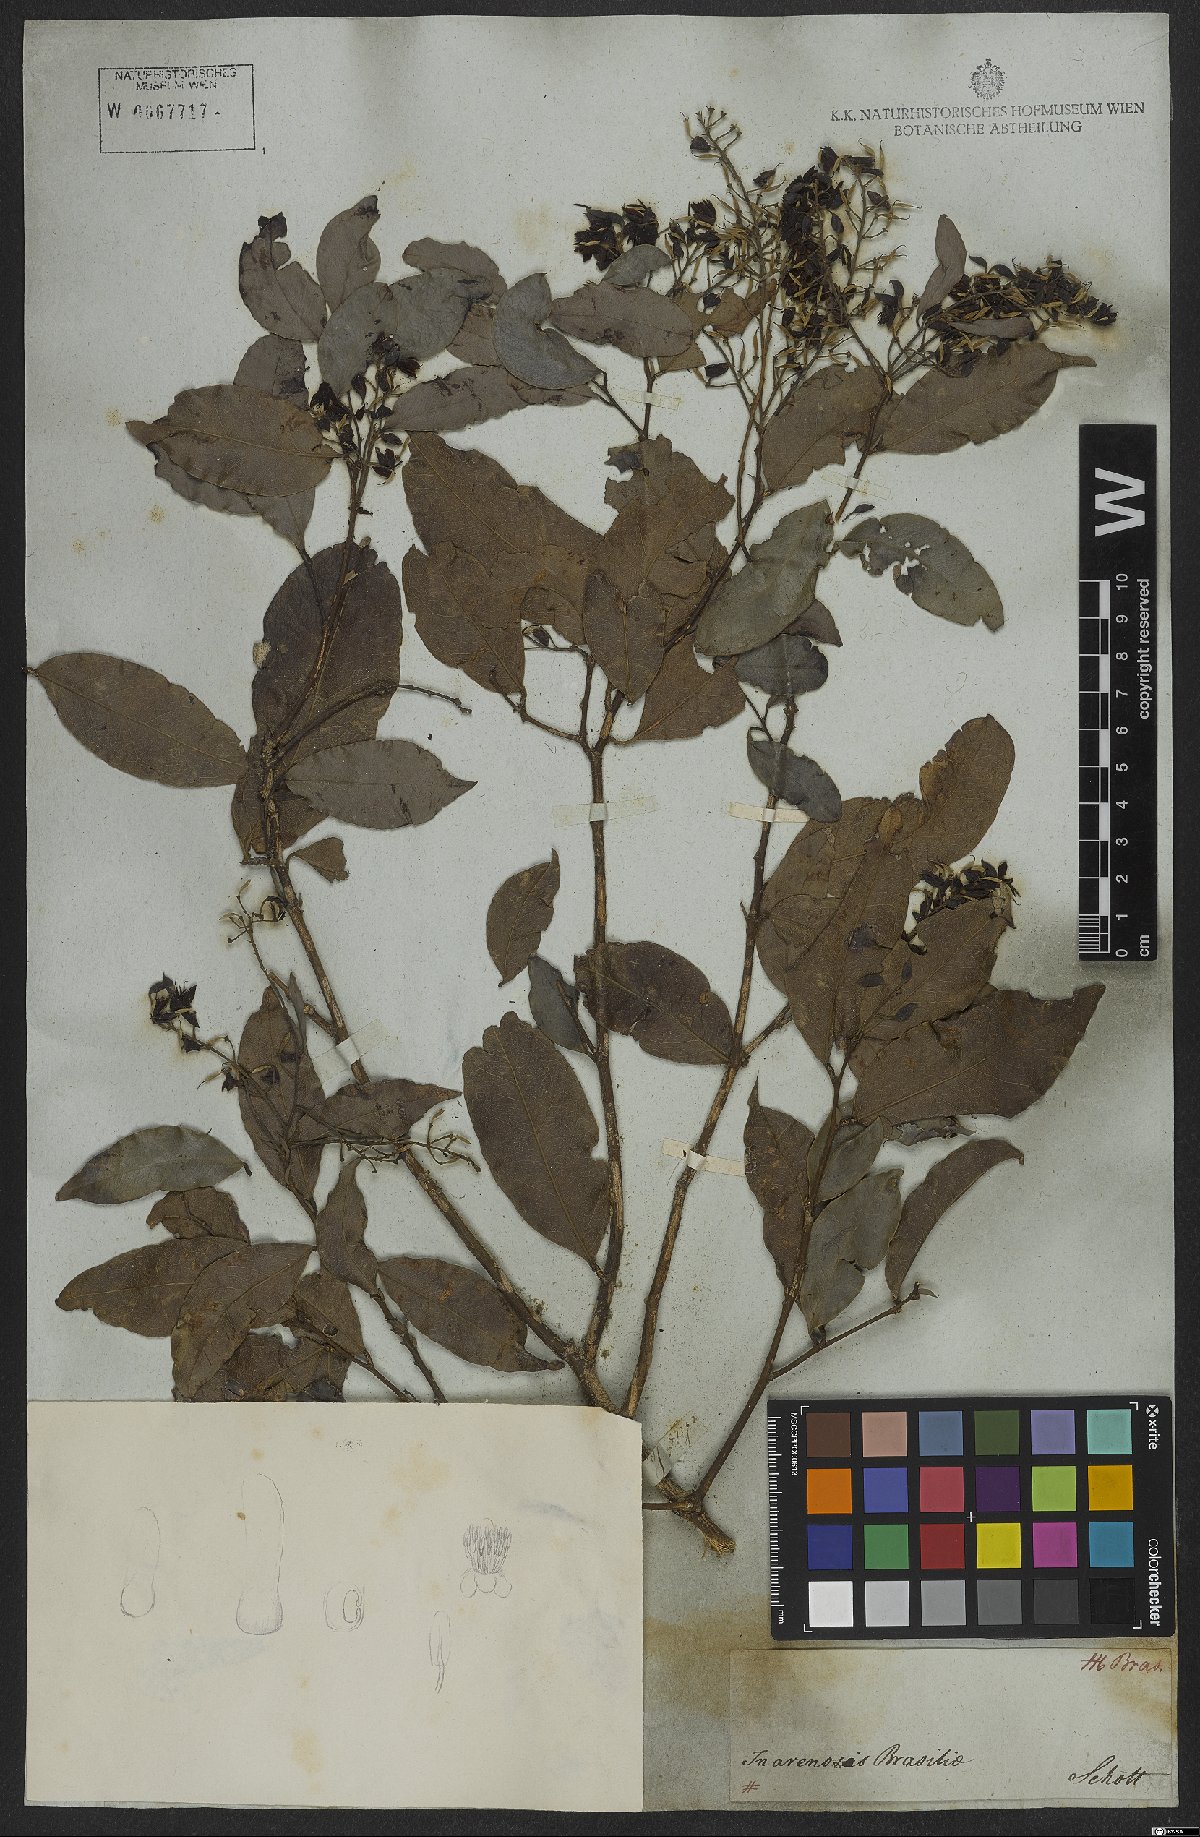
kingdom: Plantae
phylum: Tracheophyta
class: Magnoliopsida
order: Fabales
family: Fabaceae
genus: Exostyles
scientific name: Exostyles
